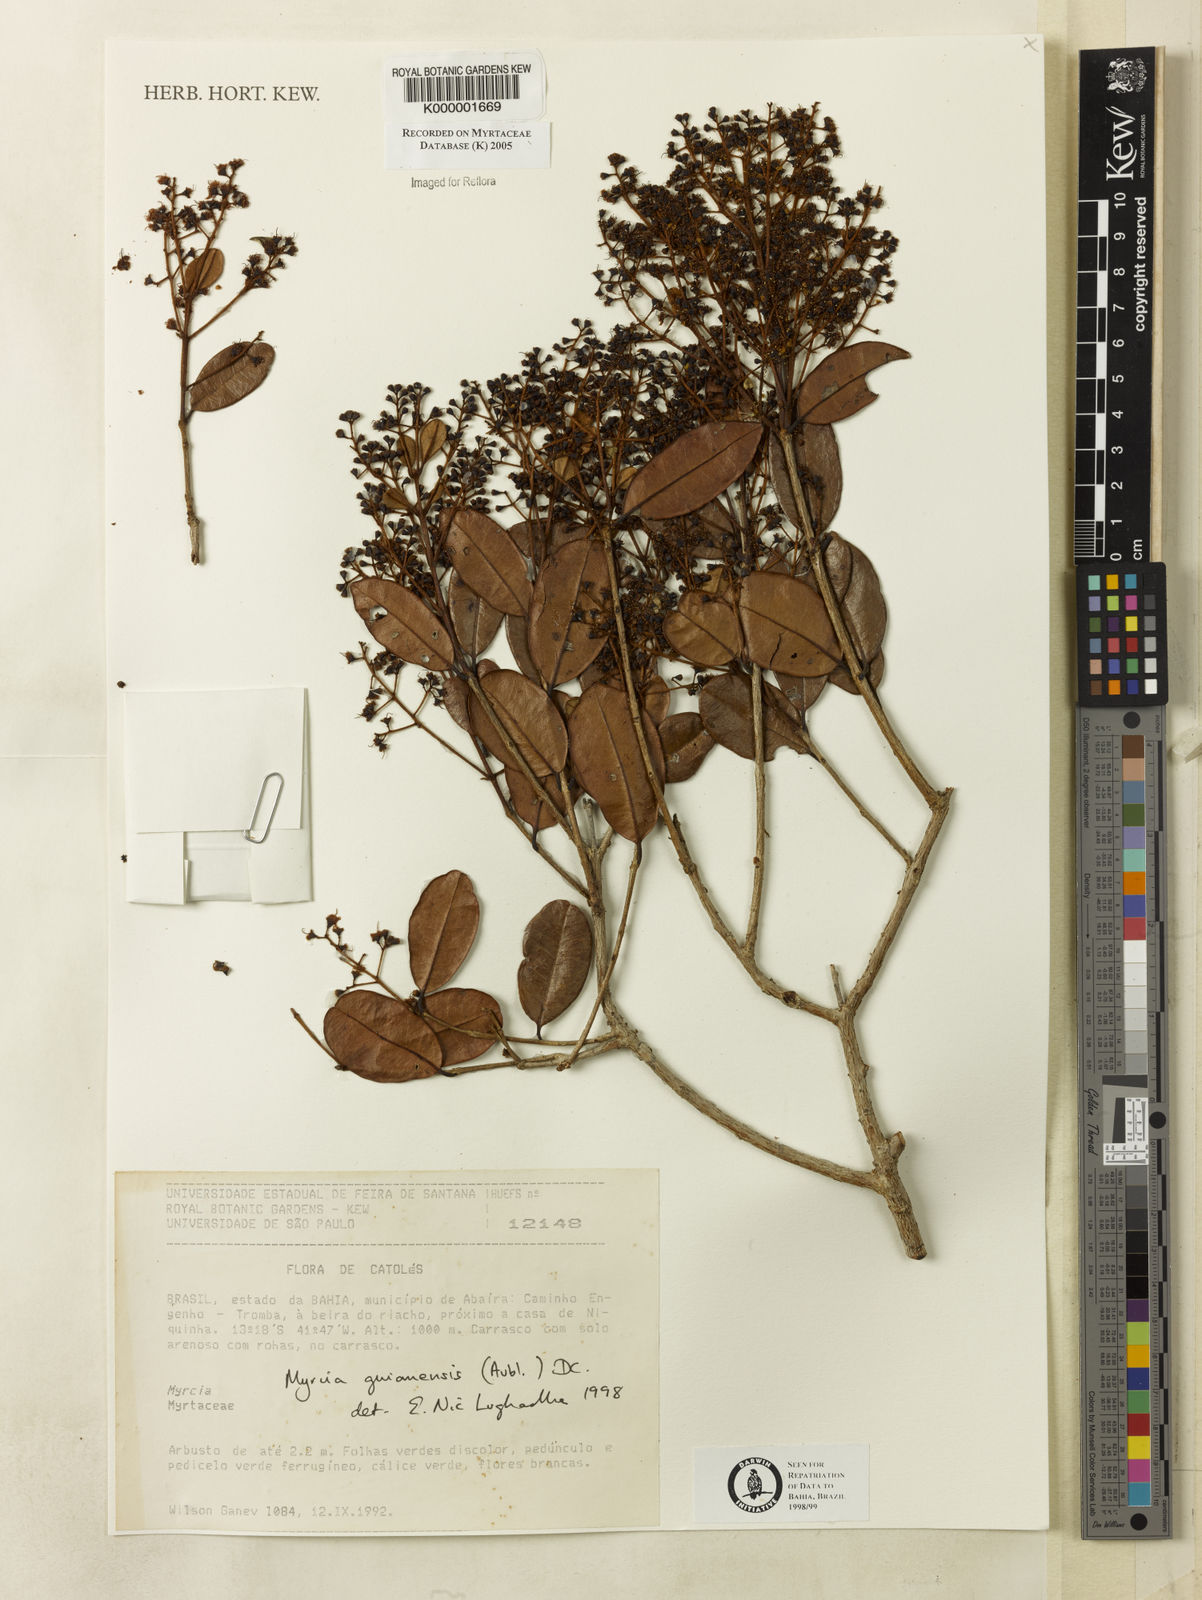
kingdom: Plantae
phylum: Tracheophyta
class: Magnoliopsida
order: Myrtales
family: Myrtaceae
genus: Myrcia
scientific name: Myrcia guianensis
